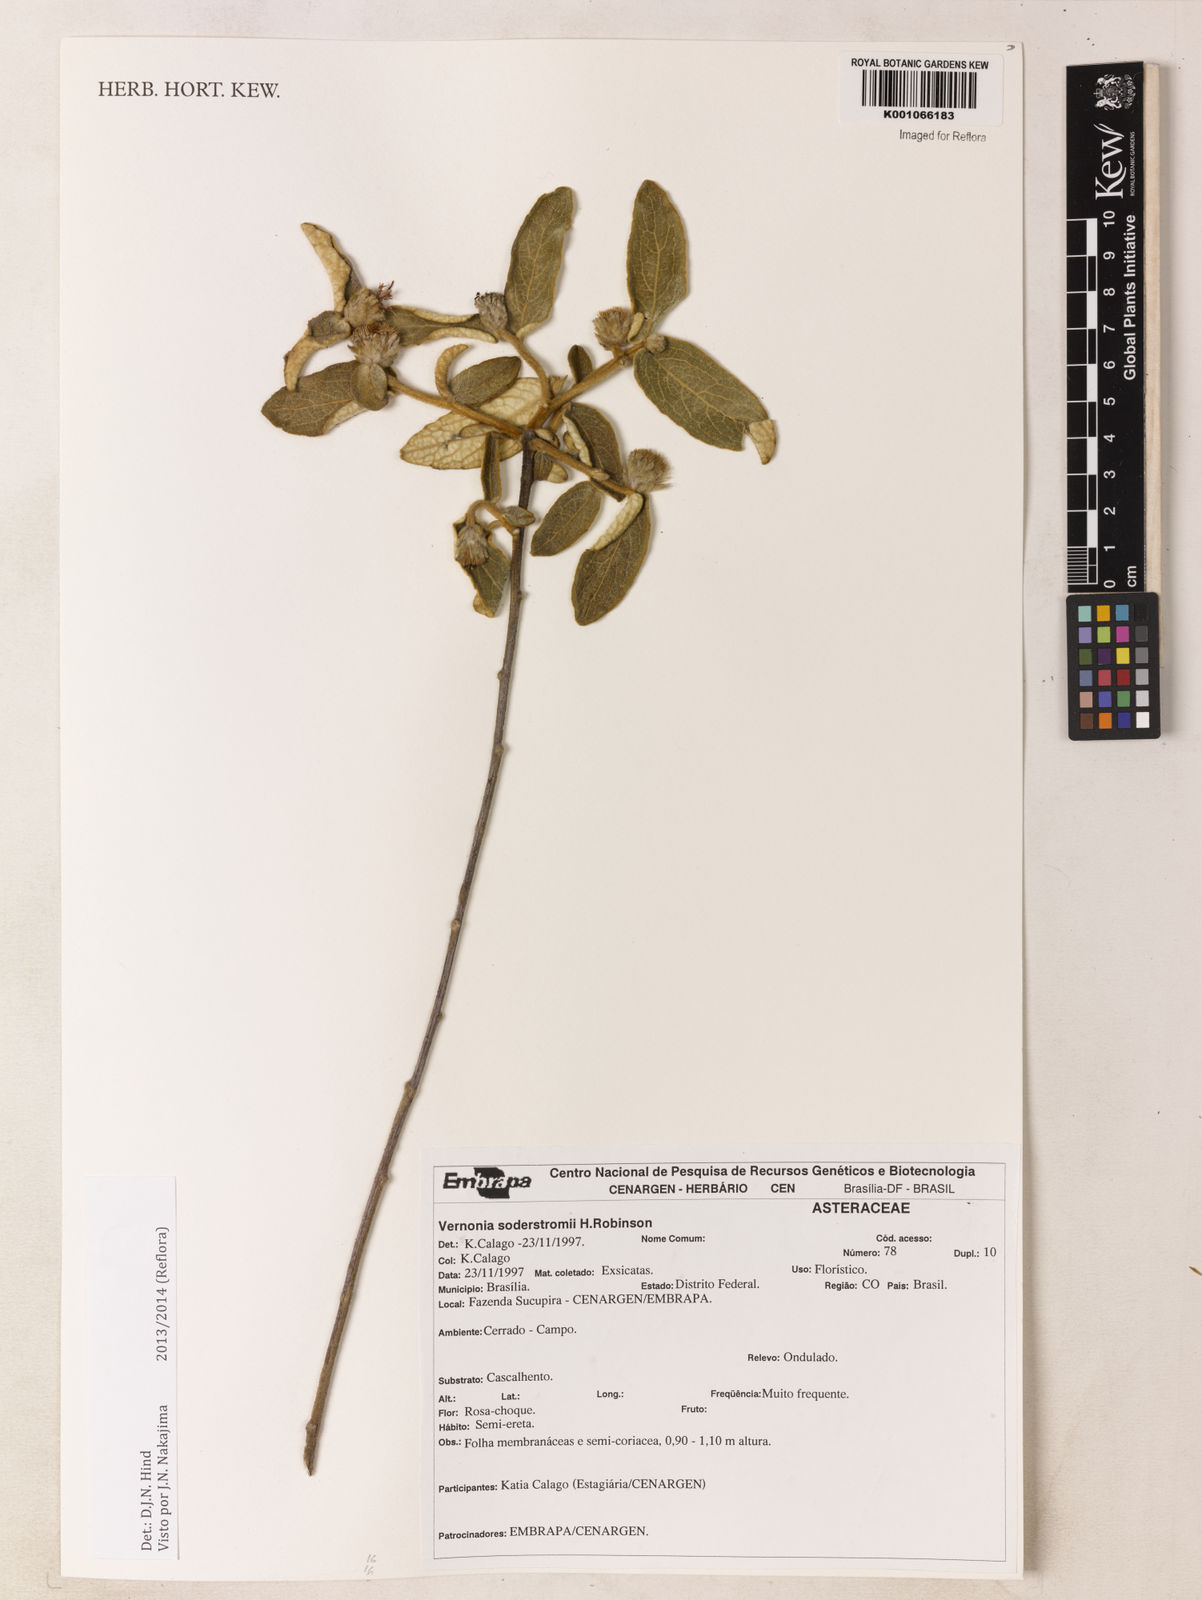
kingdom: Plantae
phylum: Tracheophyta
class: Magnoliopsida
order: Asterales
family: Asteraceae
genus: Lessingianthus
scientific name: Lessingianthus soderstroemii
